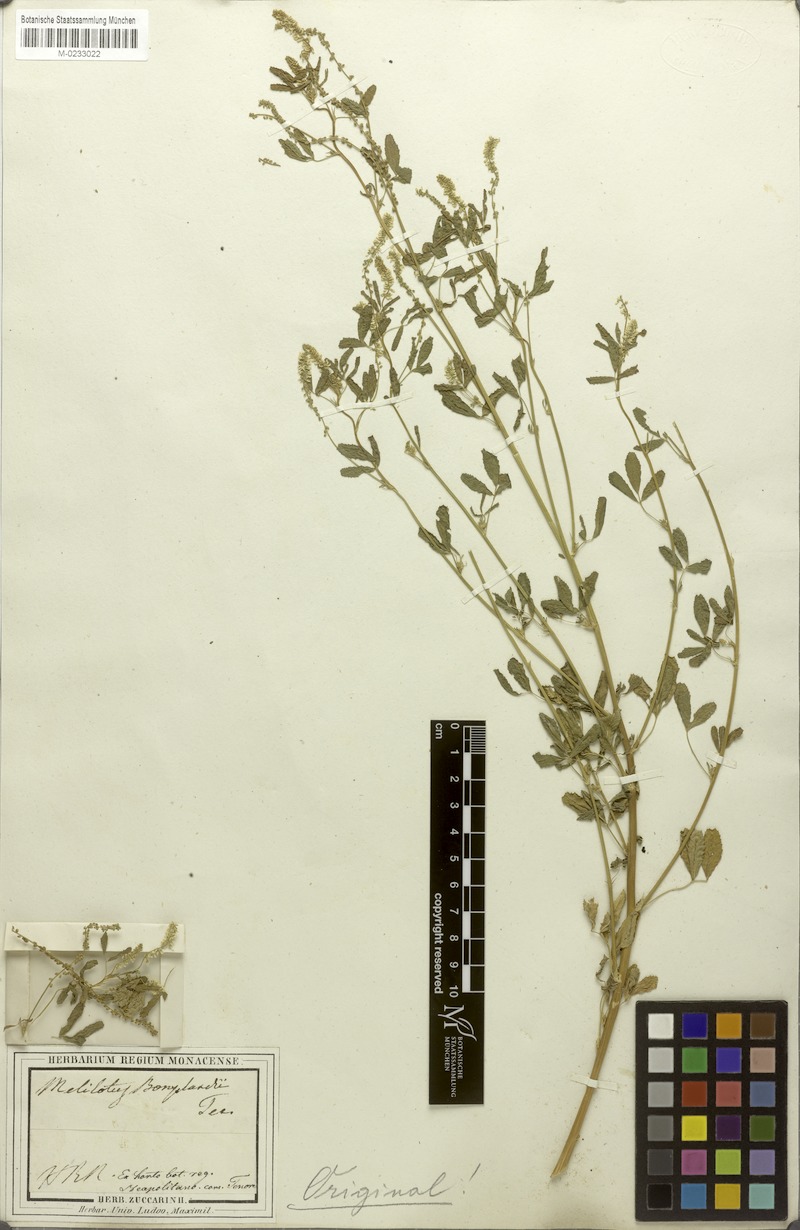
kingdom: Plantae
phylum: Tracheophyta
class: Magnoliopsida
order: Fabales
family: Fabaceae
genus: Melilotus
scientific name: Melilotus indicus
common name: Small melilot
